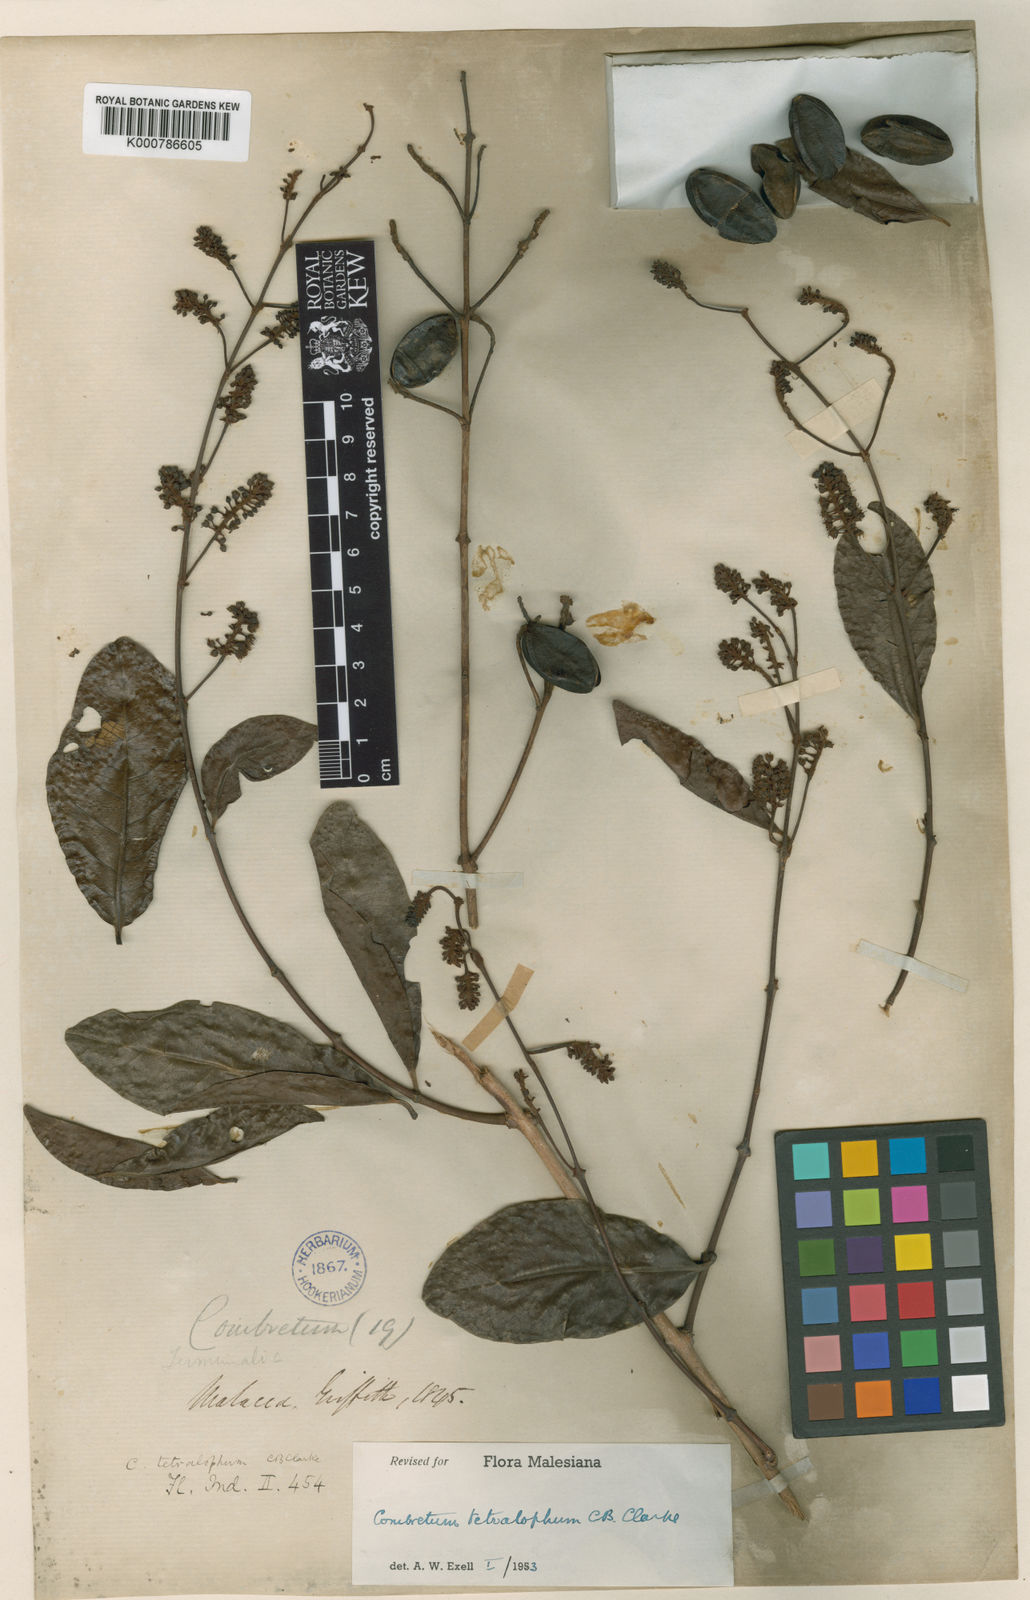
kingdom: Plantae
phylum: Tracheophyta
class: Magnoliopsida
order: Myrtales
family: Combretaceae
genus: Combretum
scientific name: Combretum tetralophum
